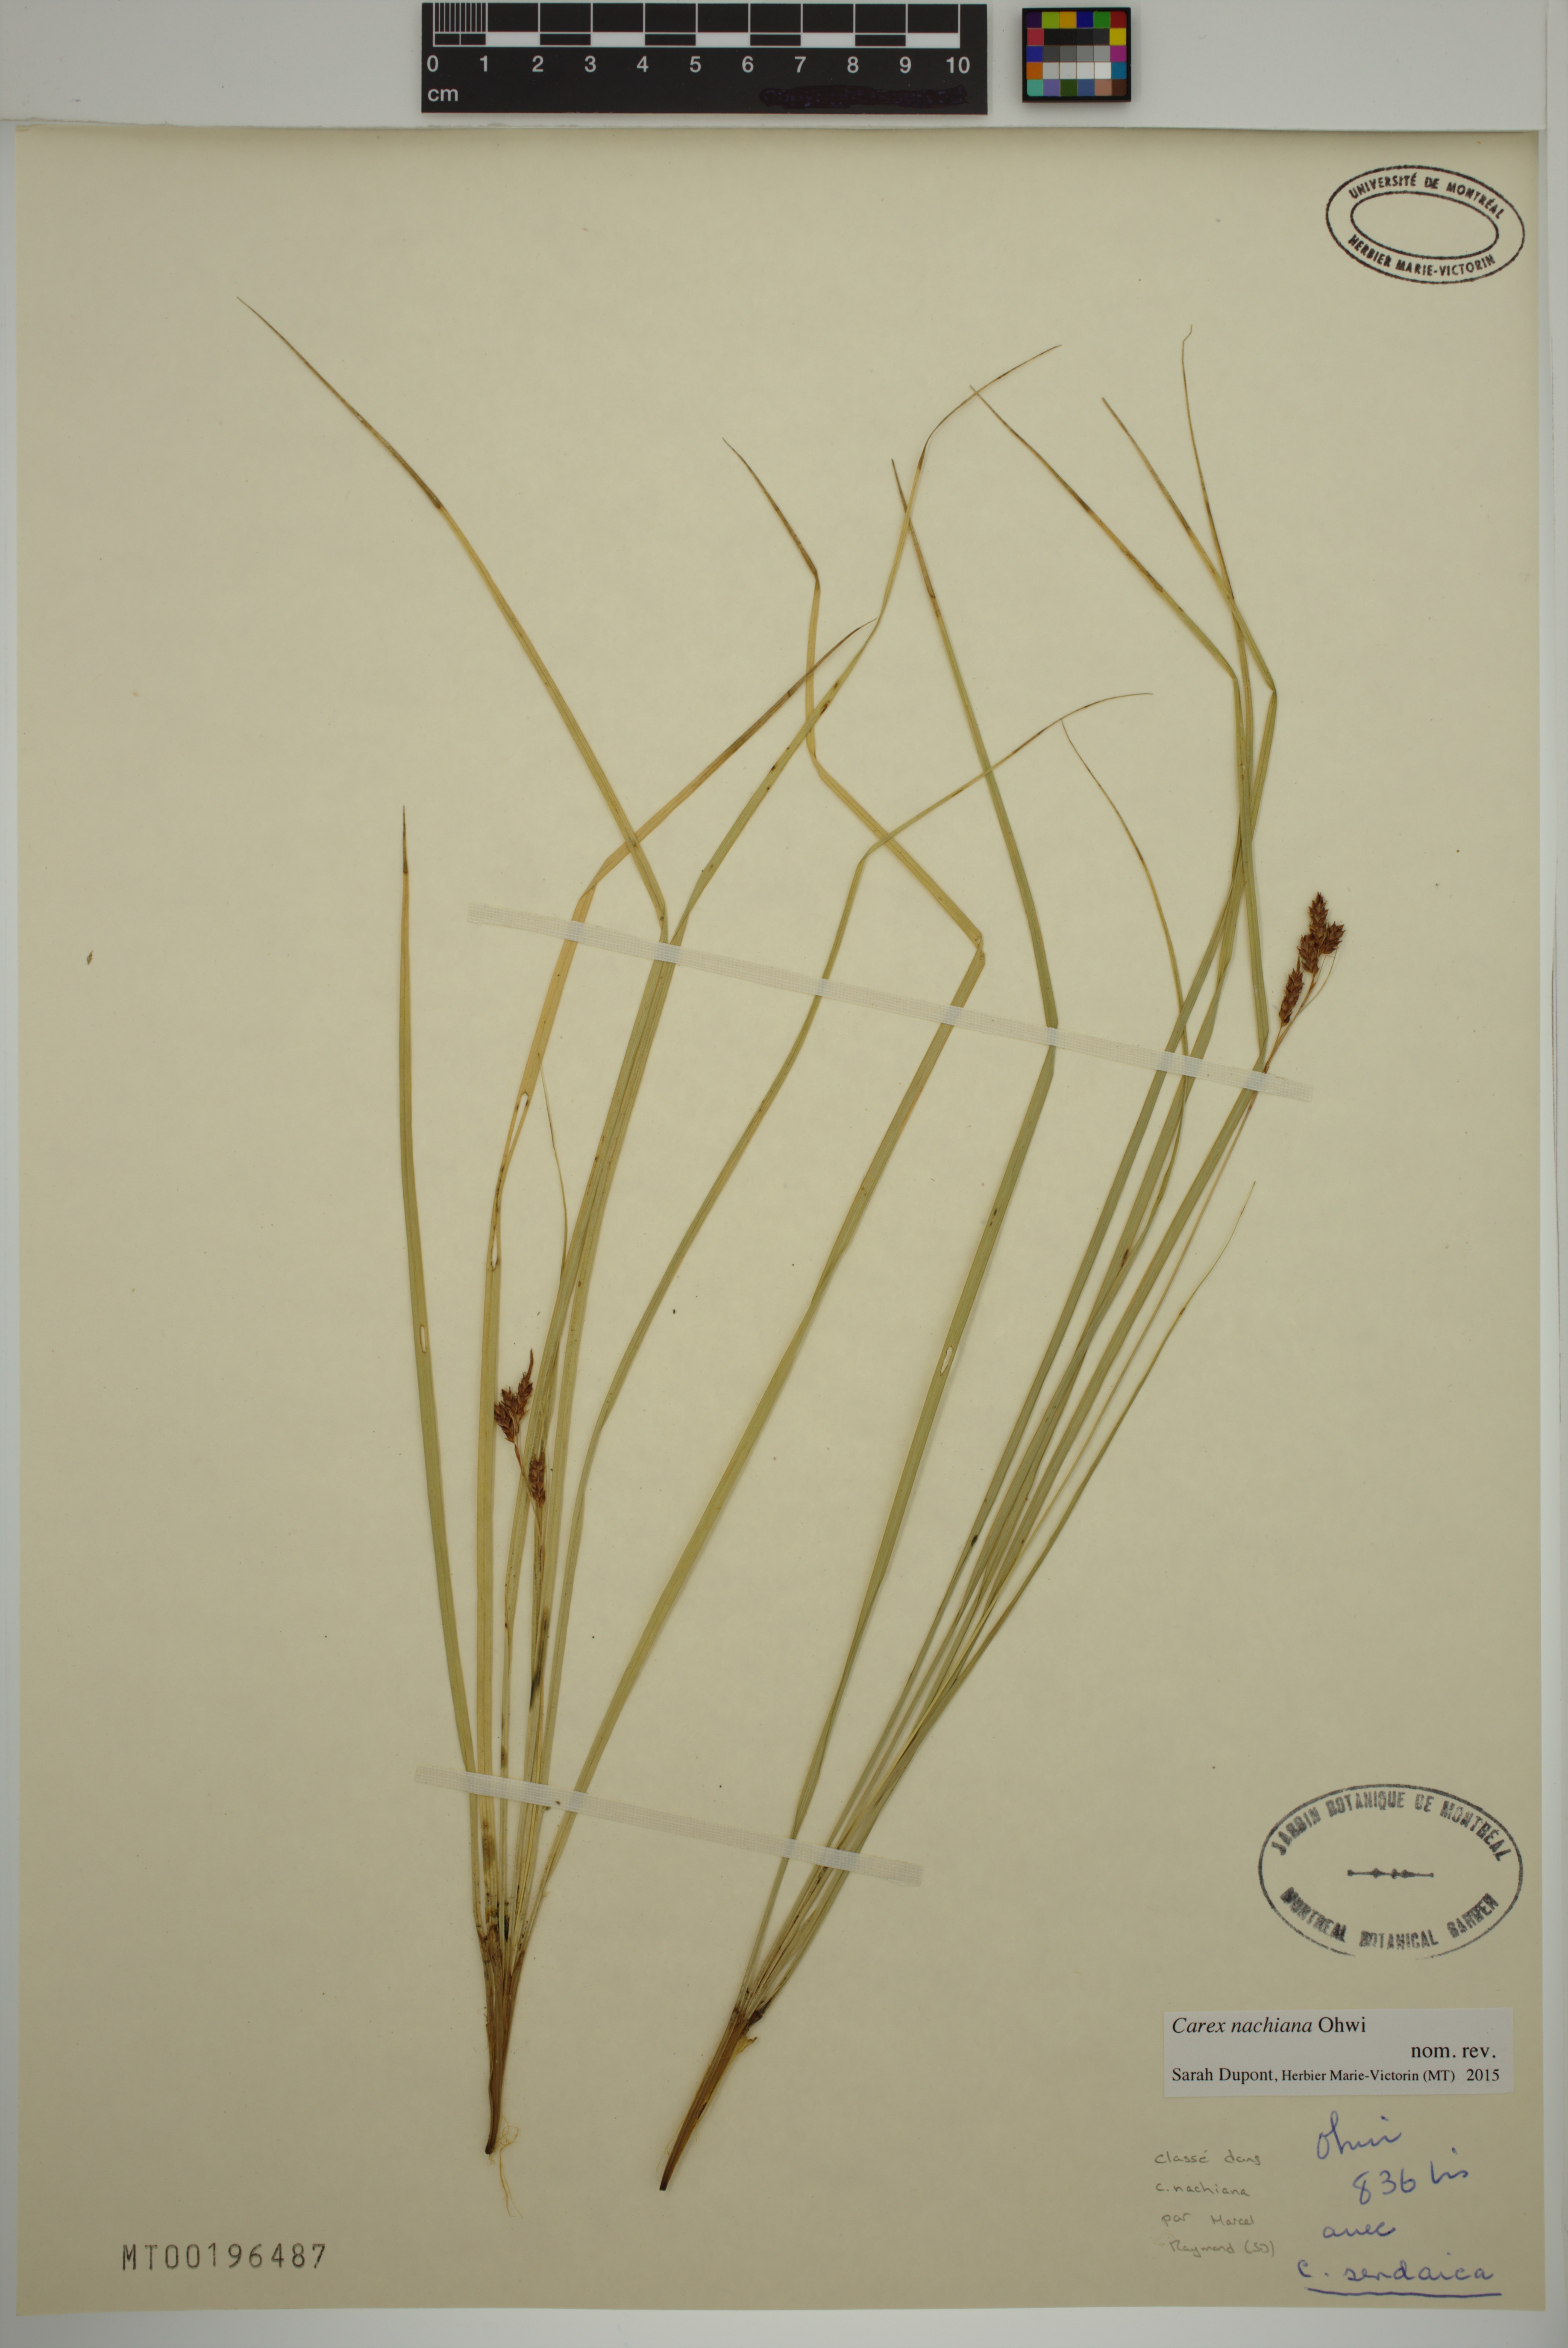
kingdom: Plantae
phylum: Tracheophyta
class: Liliopsida
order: Poales
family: Cyperaceae
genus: Carex
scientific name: Carex nachiana
